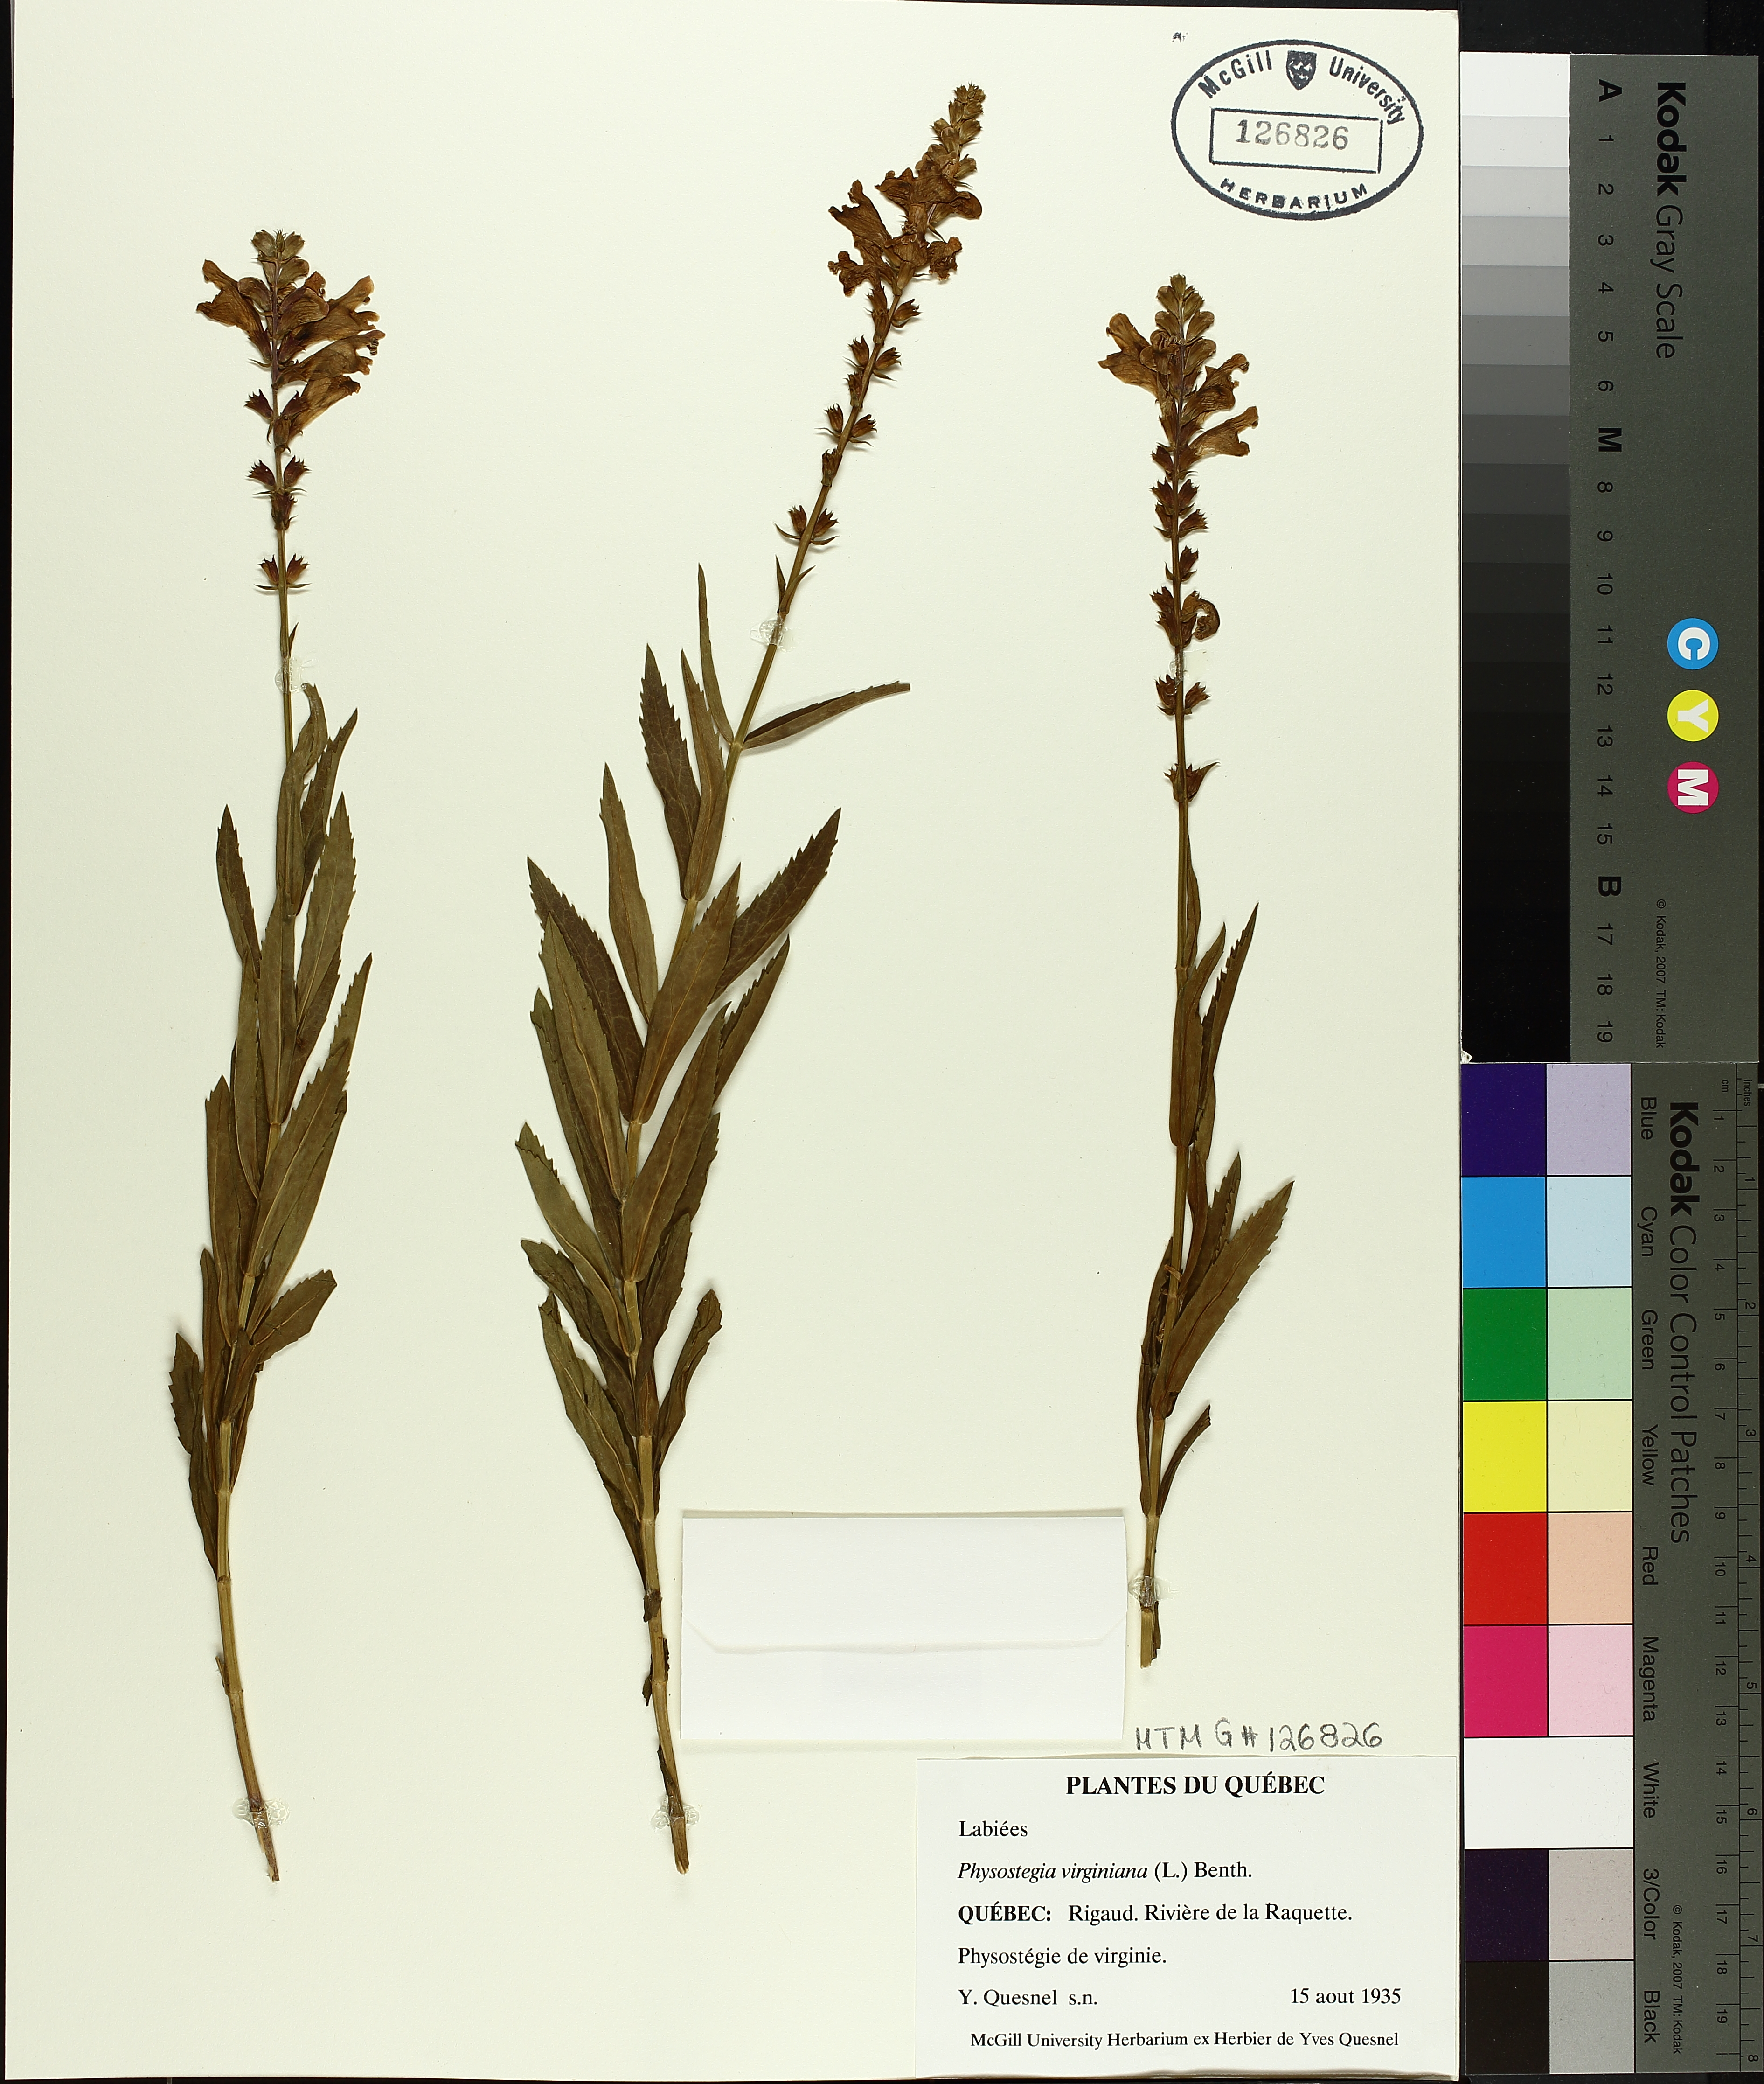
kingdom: Plantae
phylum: Tracheophyta
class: Magnoliopsida
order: Lamiales
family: Lamiaceae
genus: Physostegia
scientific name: Physostegia virginiana
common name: Obedient-plant
